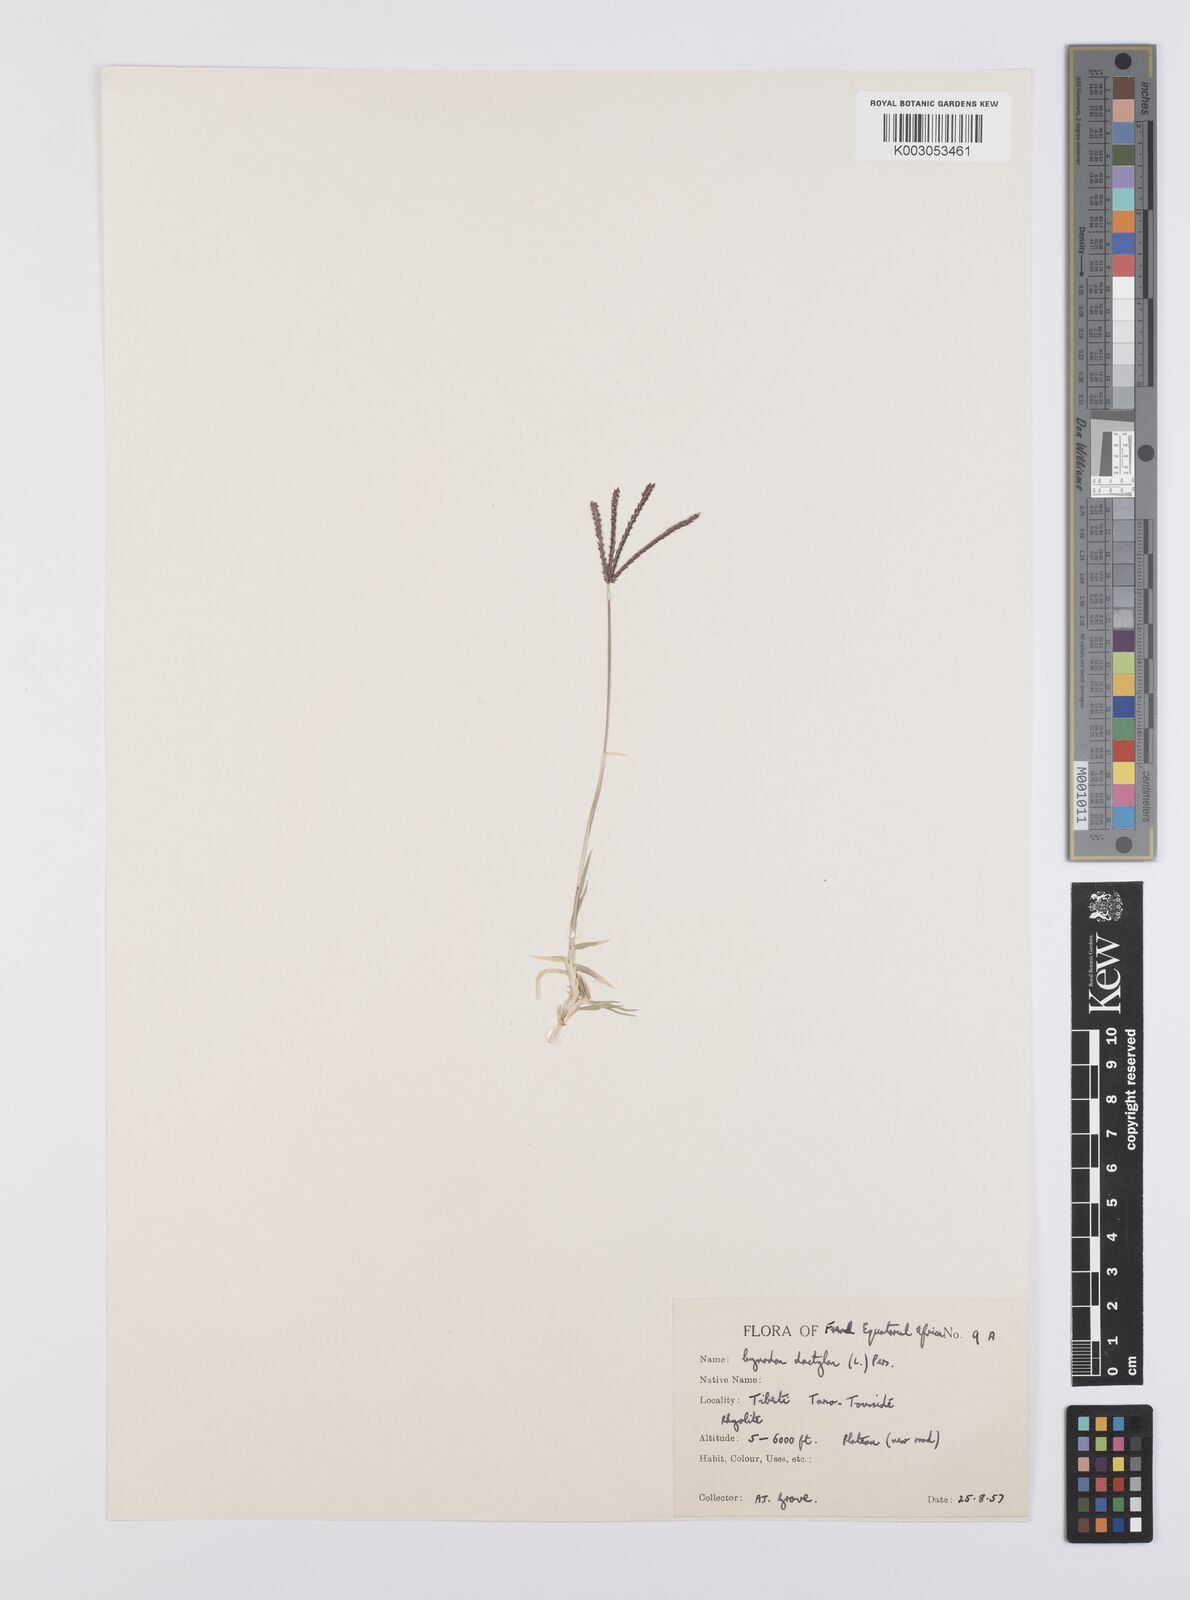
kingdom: Plantae
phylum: Tracheophyta
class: Liliopsida
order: Poales
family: Poaceae
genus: Cynodon
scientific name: Cynodon dactylon
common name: Bermuda grass
